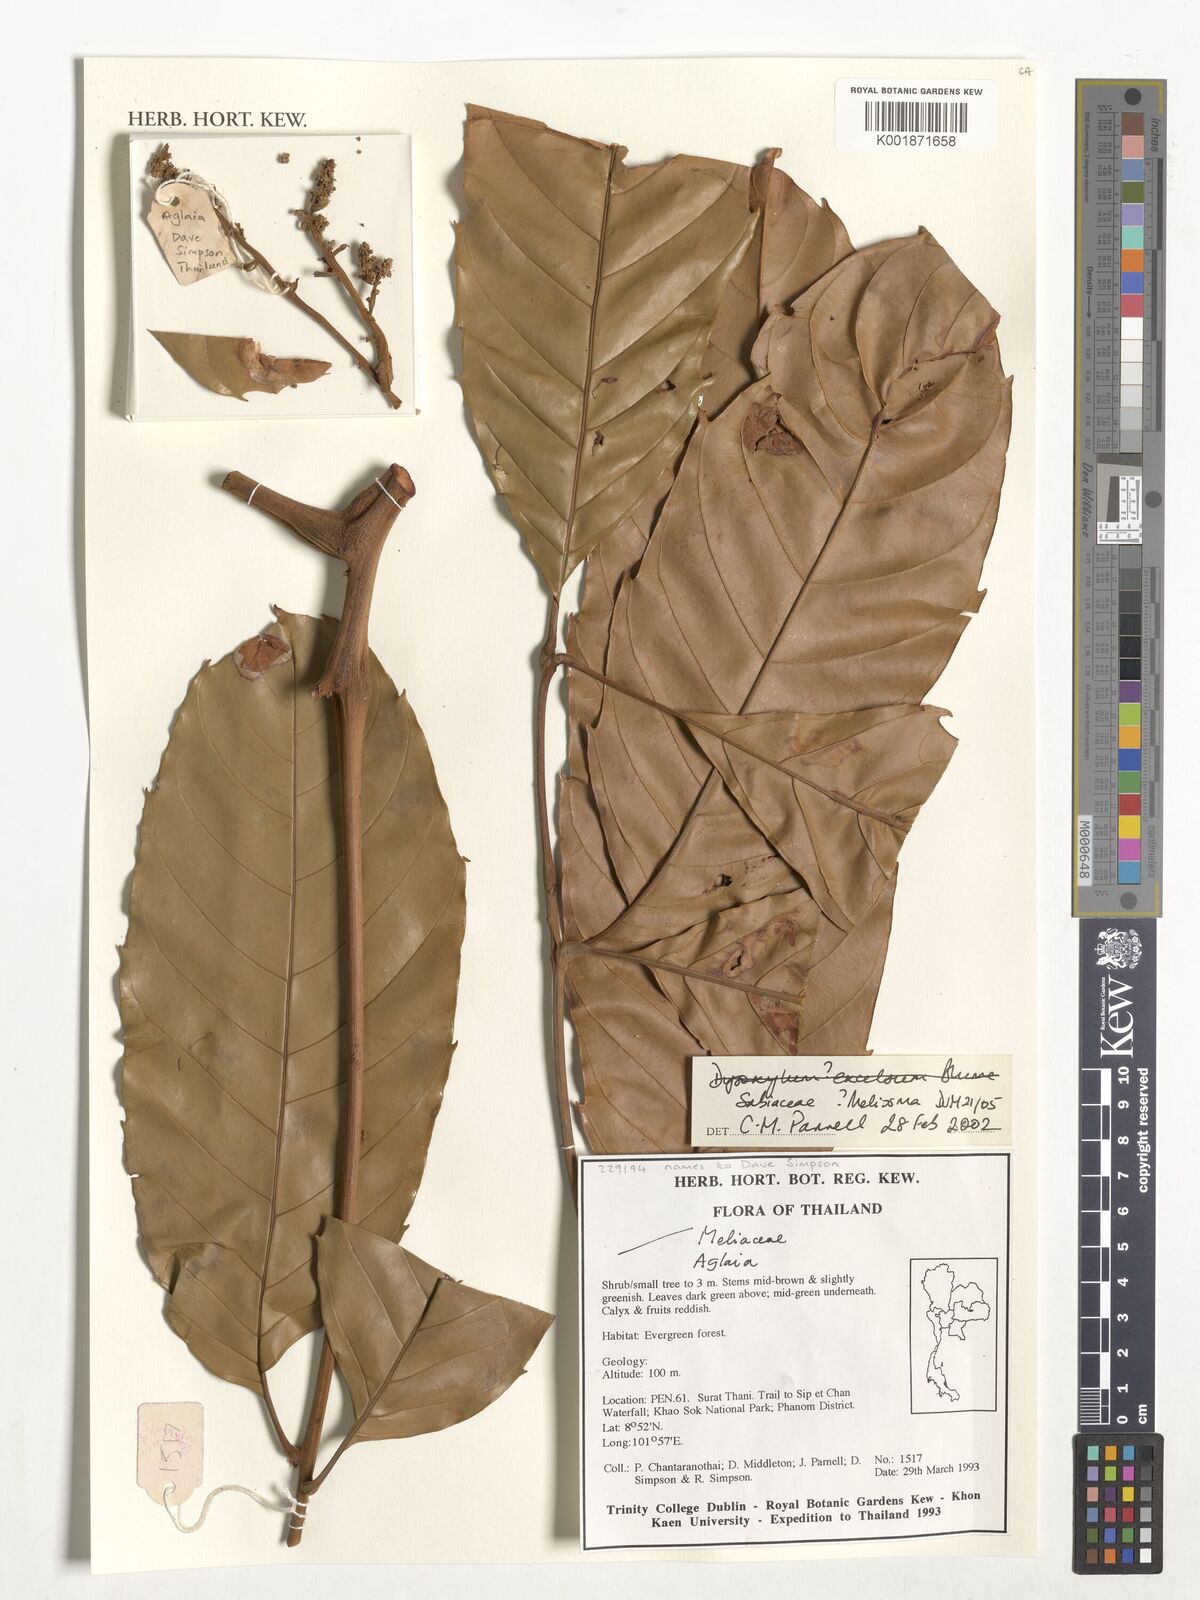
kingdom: Plantae
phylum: Tracheophyta
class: Magnoliopsida
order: Proteales
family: Sabiaceae
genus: Meliosma
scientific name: Meliosma
